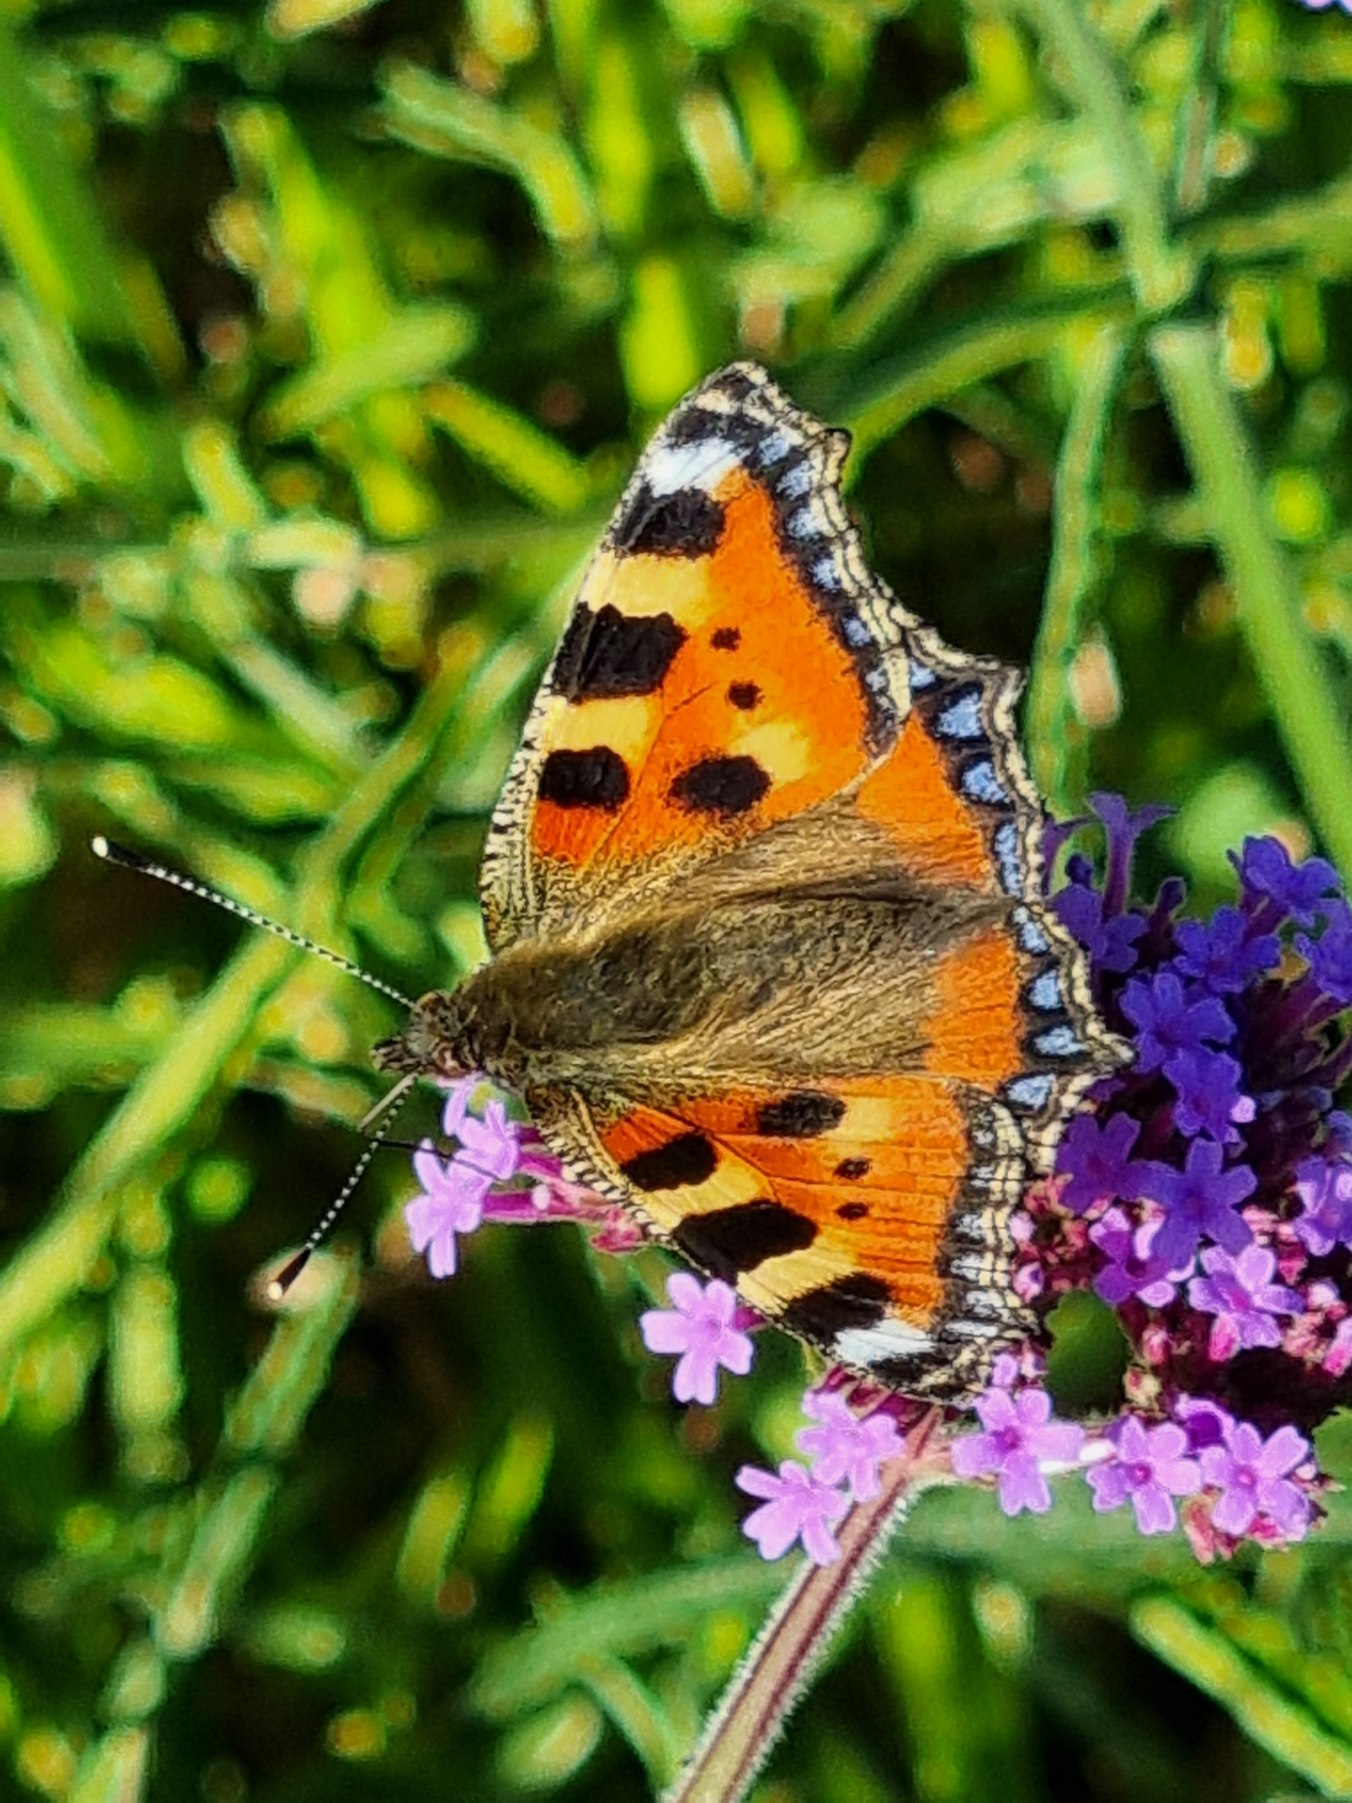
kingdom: Animalia
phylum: Arthropoda
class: Insecta
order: Lepidoptera
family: Nymphalidae
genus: Aglais
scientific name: Aglais urticae
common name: Nældens takvinge
